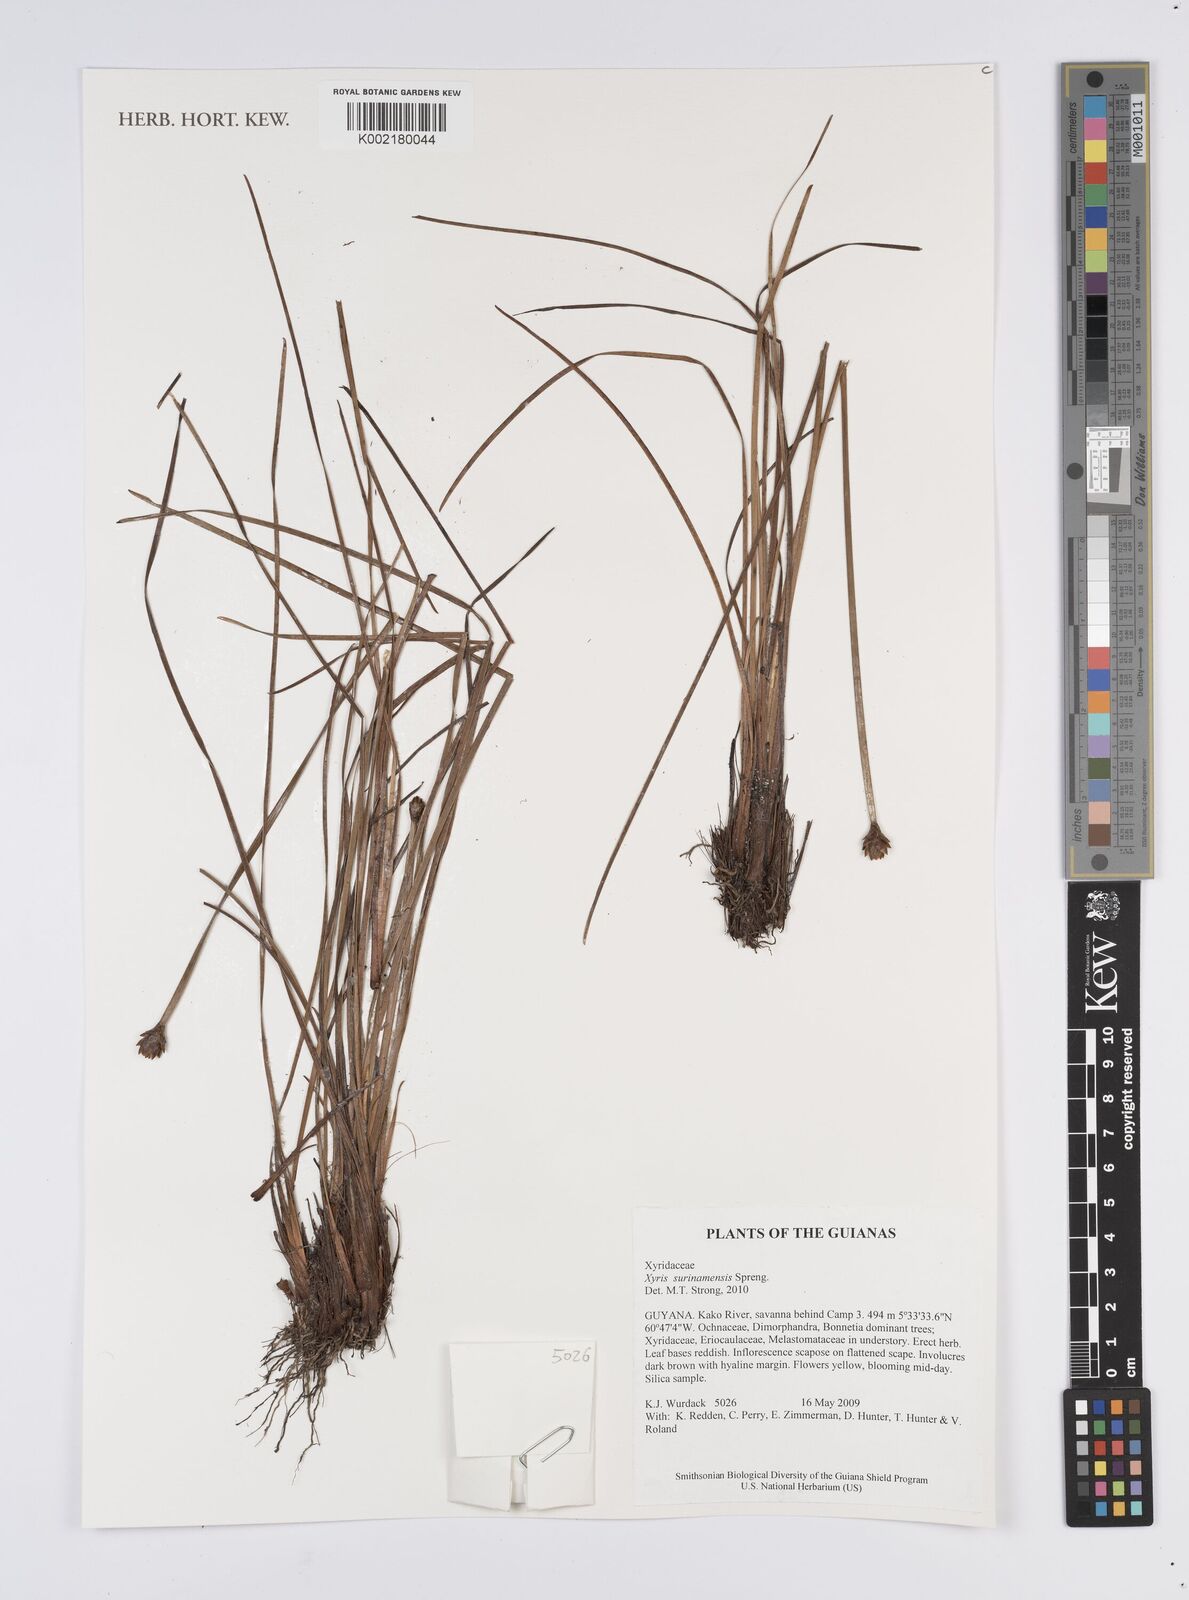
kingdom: Plantae
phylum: Tracheophyta
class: Liliopsida
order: Poales
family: Xyridaceae
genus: Xyris
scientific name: Xyris surinamensis
